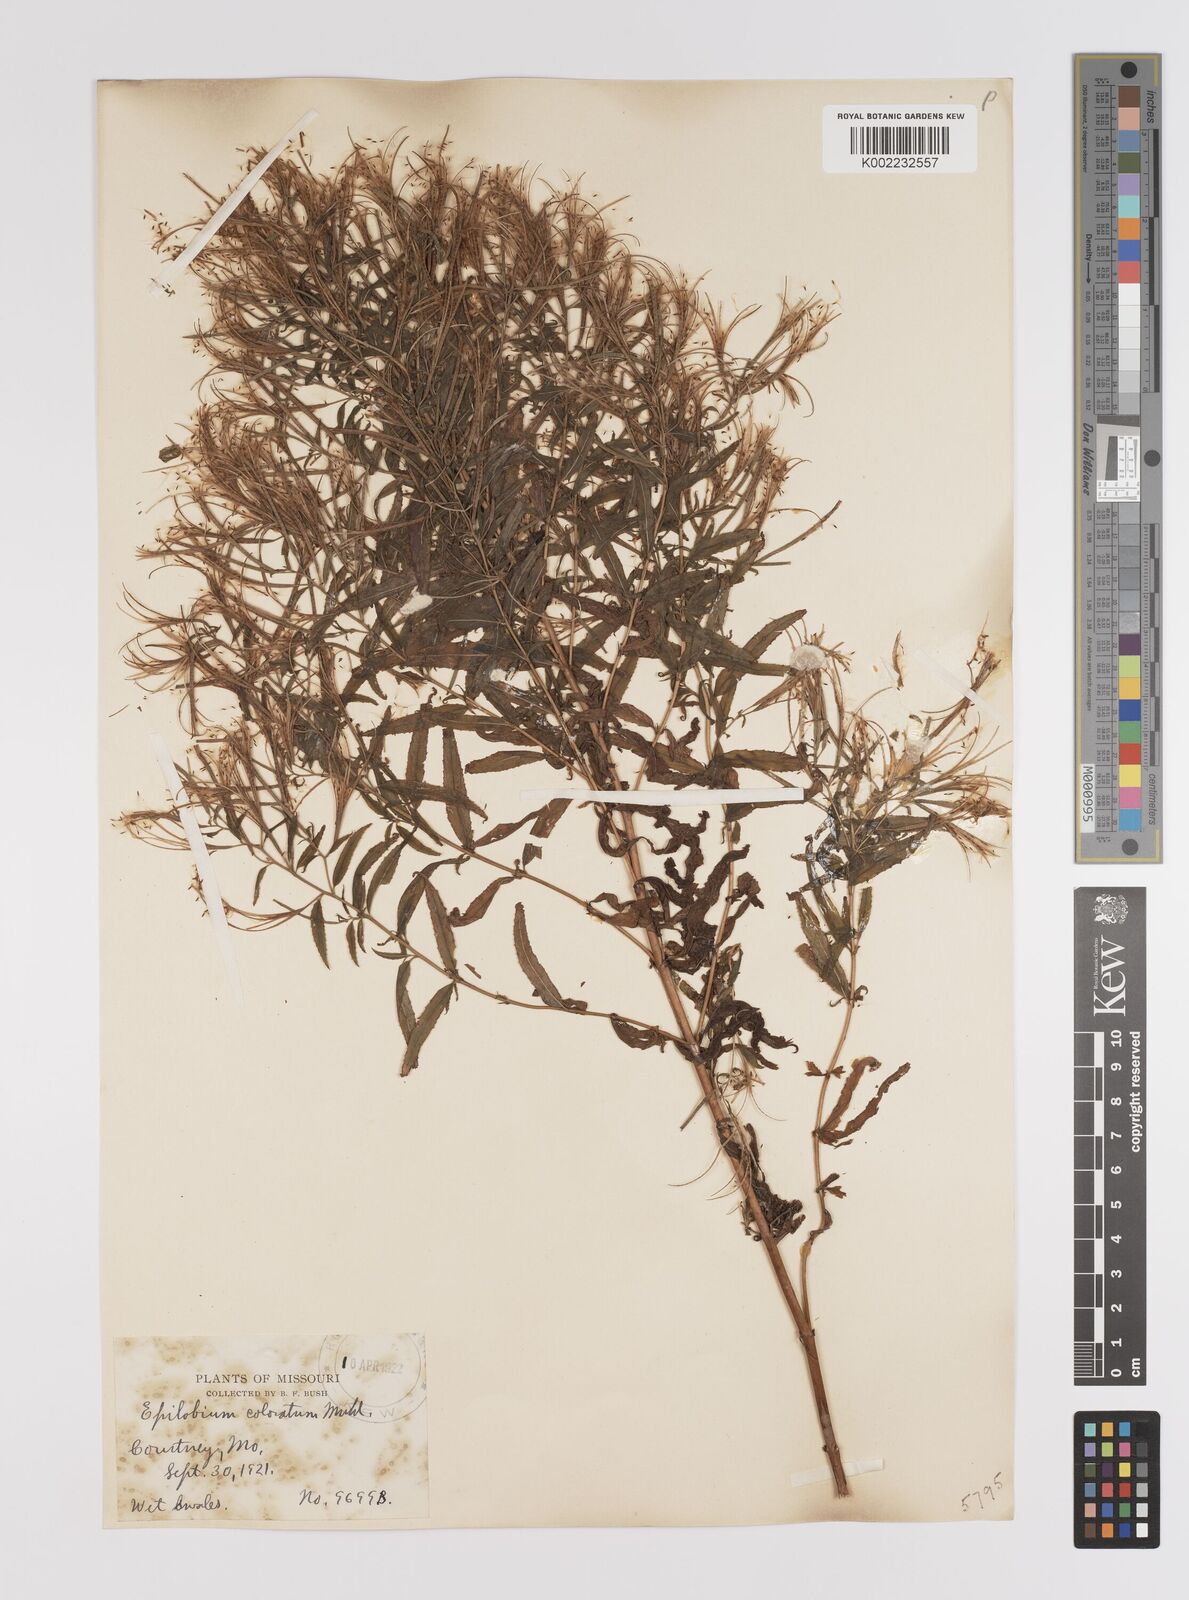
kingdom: Plantae
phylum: Tracheophyta
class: Magnoliopsida
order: Myrtales
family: Onagraceae
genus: Epilobium
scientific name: Epilobium coloratum
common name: Bronze willowherb
